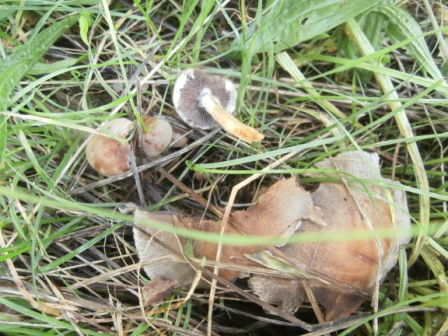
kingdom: Fungi
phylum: Basidiomycota
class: Agaricomycetes
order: Agaricales
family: Hymenogastraceae
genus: Hebeloma
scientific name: Hebeloma mesophaeum
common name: lerbrun tåreblad
